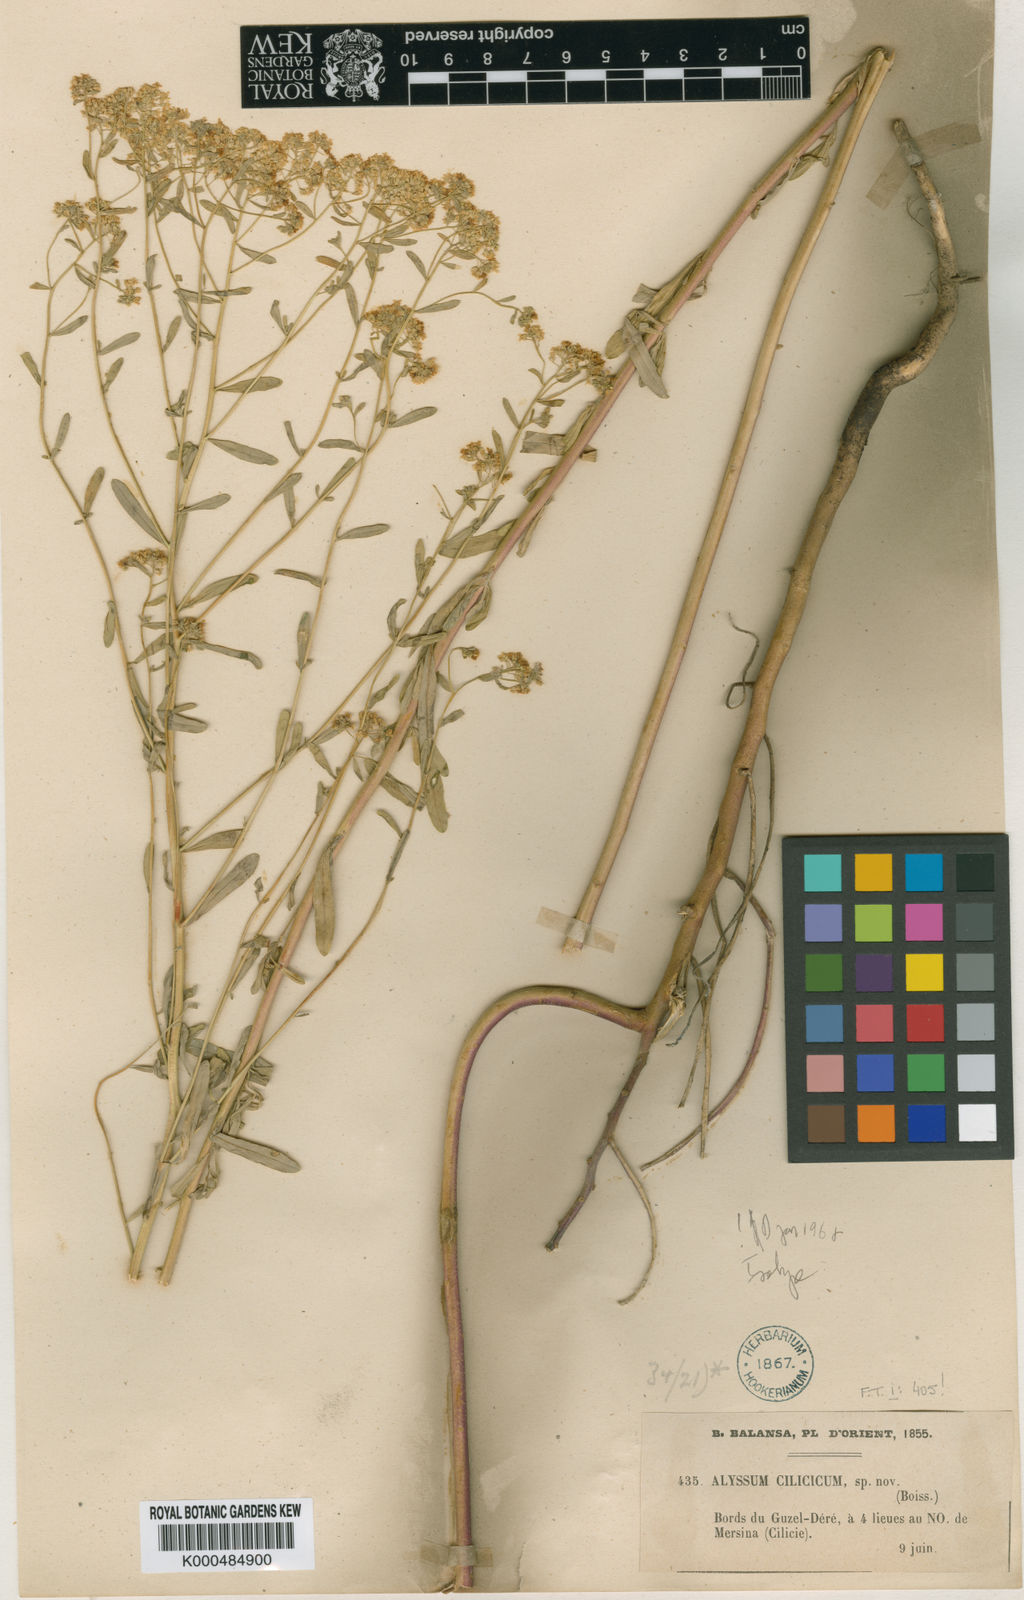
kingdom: Plantae
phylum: Tracheophyta
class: Magnoliopsida
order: Brassicales
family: Brassicaceae
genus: Odontarrhena
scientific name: Odontarrhena
